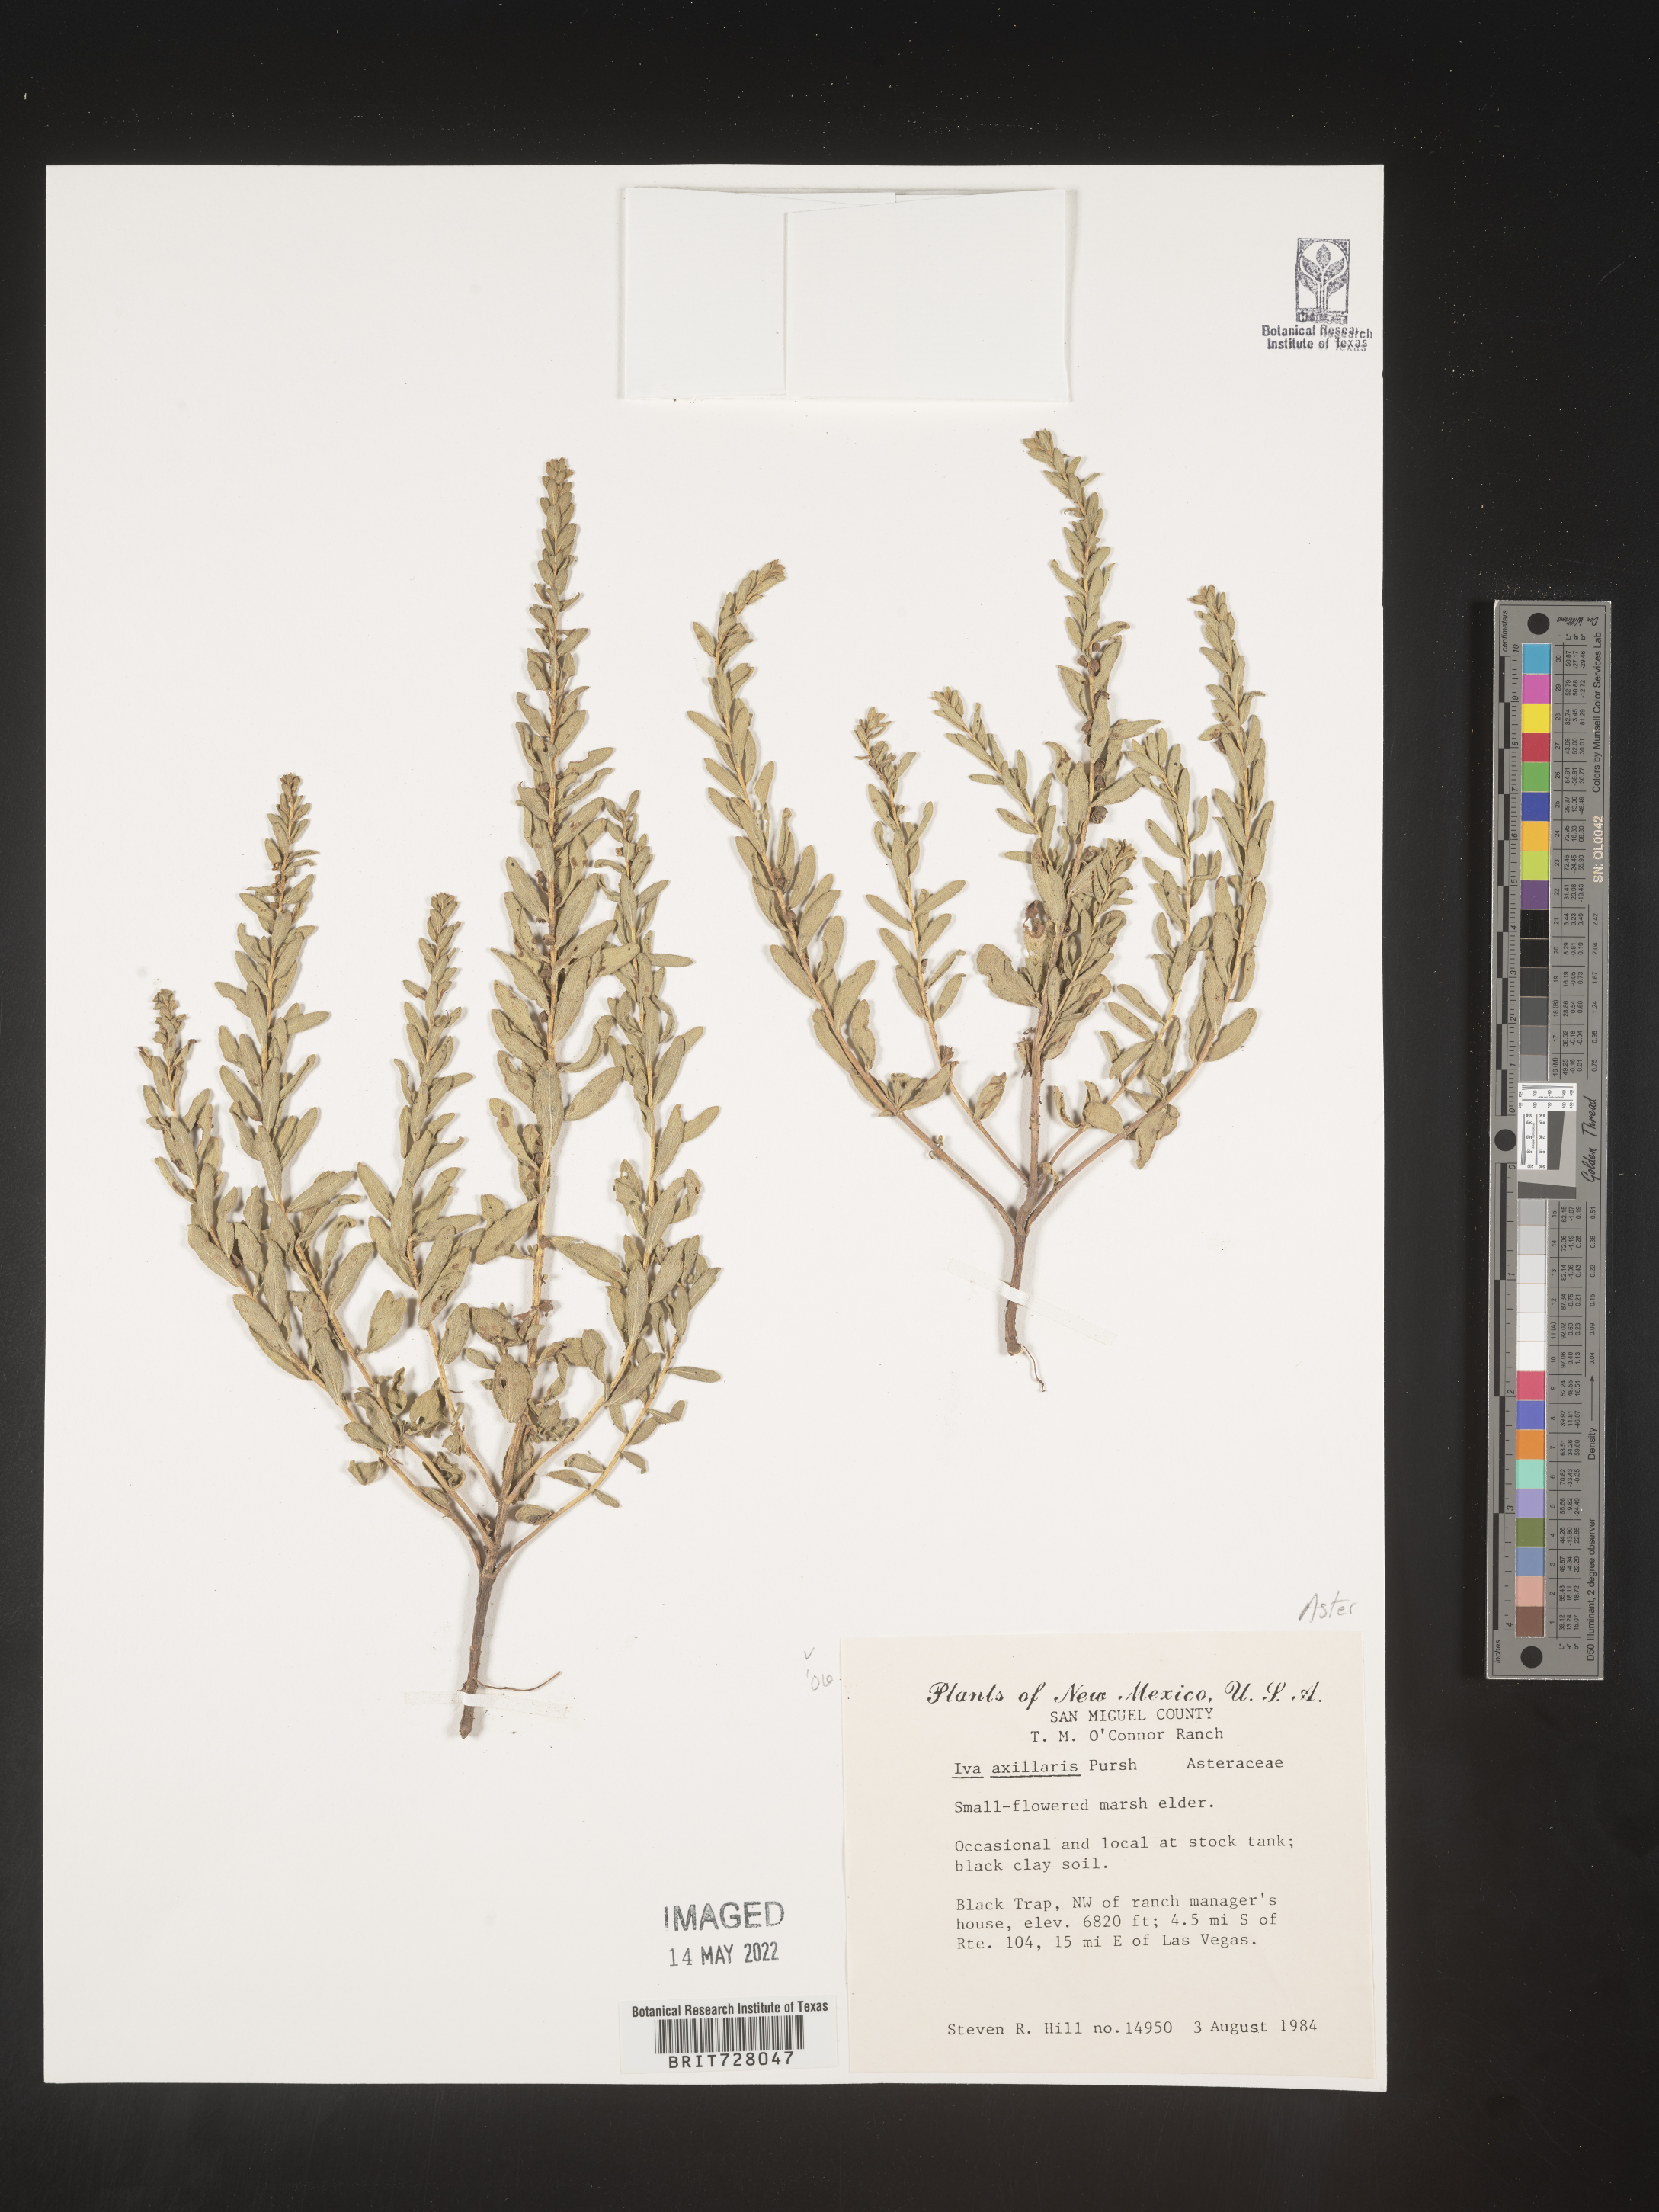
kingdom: Plantae
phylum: Tracheophyta
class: Magnoliopsida
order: Asterales
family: Asteraceae
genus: Iva
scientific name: Iva axillaris
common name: Poverty sumpweed
